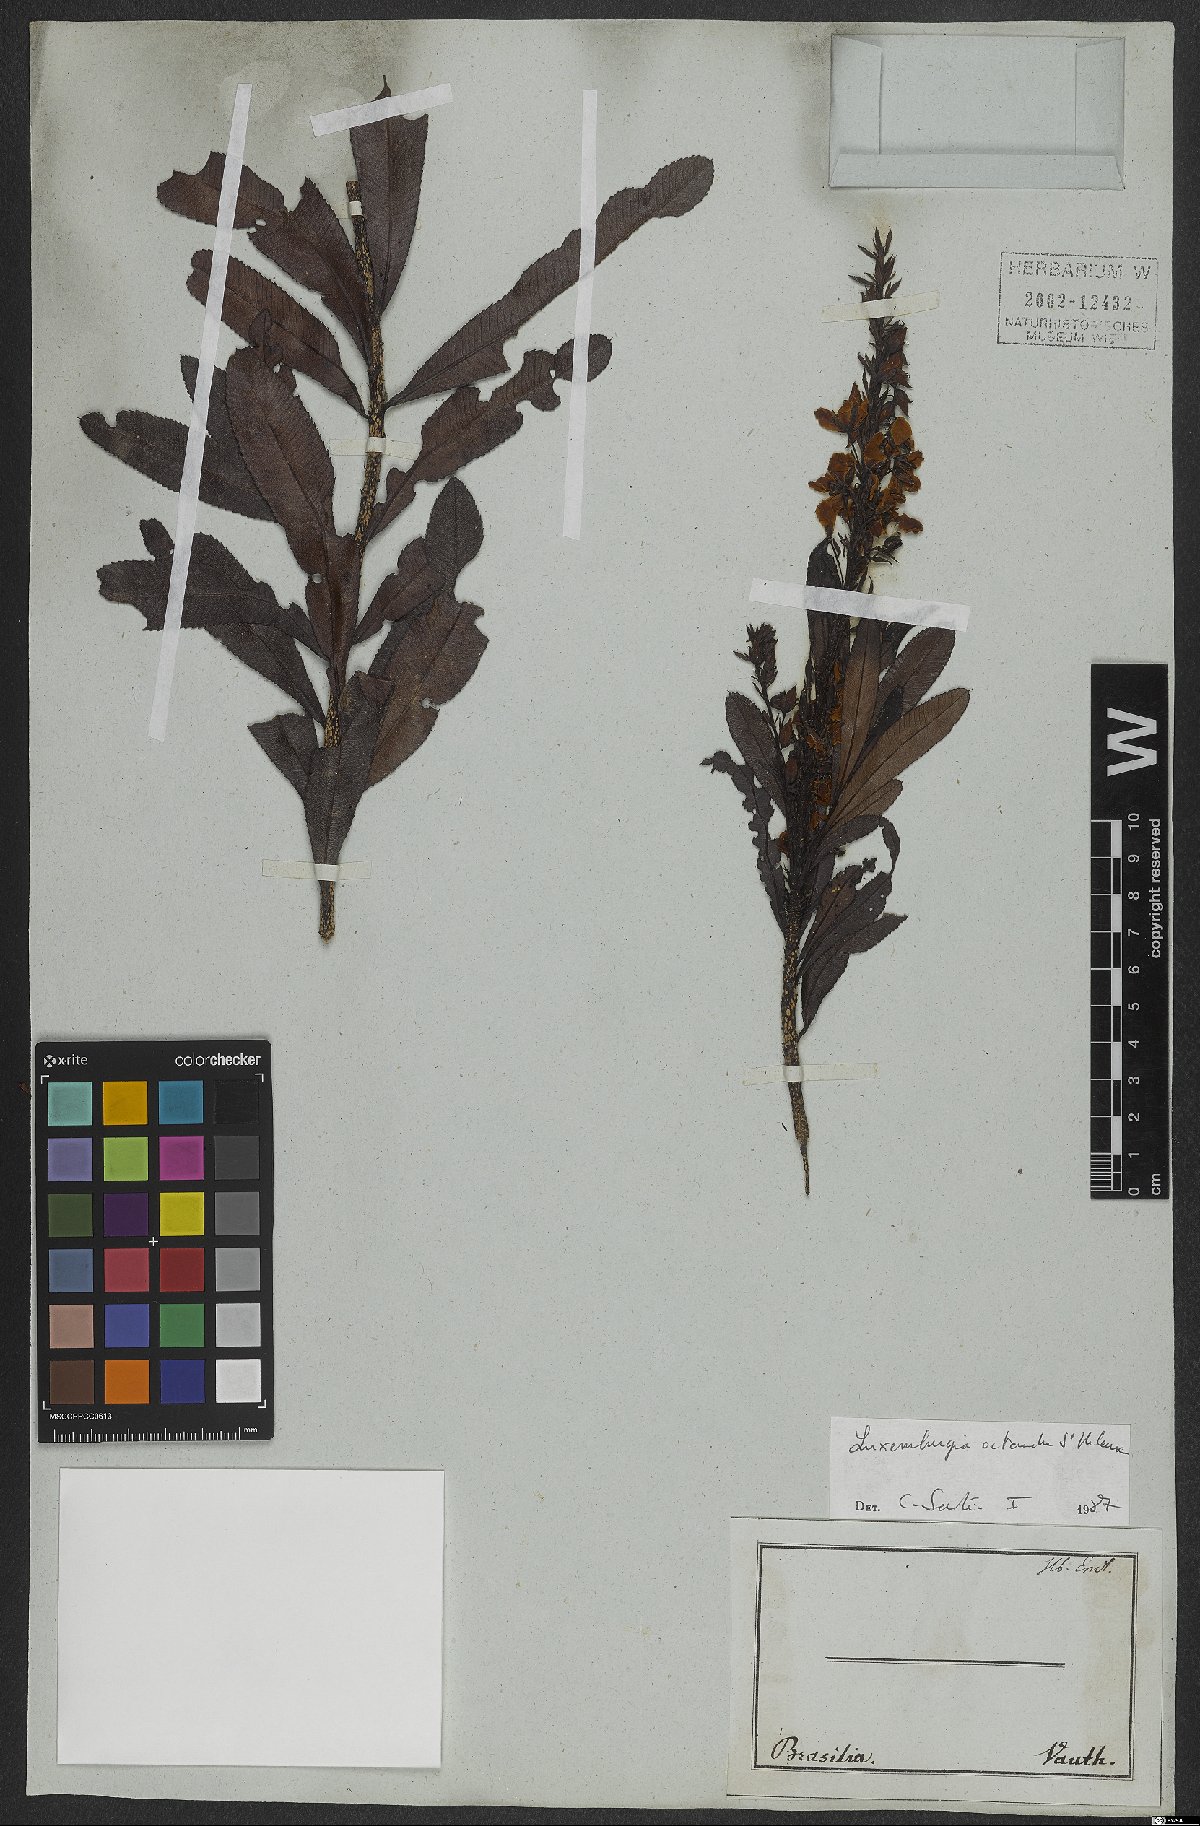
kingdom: Plantae
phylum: Tracheophyta
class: Magnoliopsida
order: Malpighiales
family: Ochnaceae
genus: Luxemburgia
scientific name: Luxemburgia octandra
